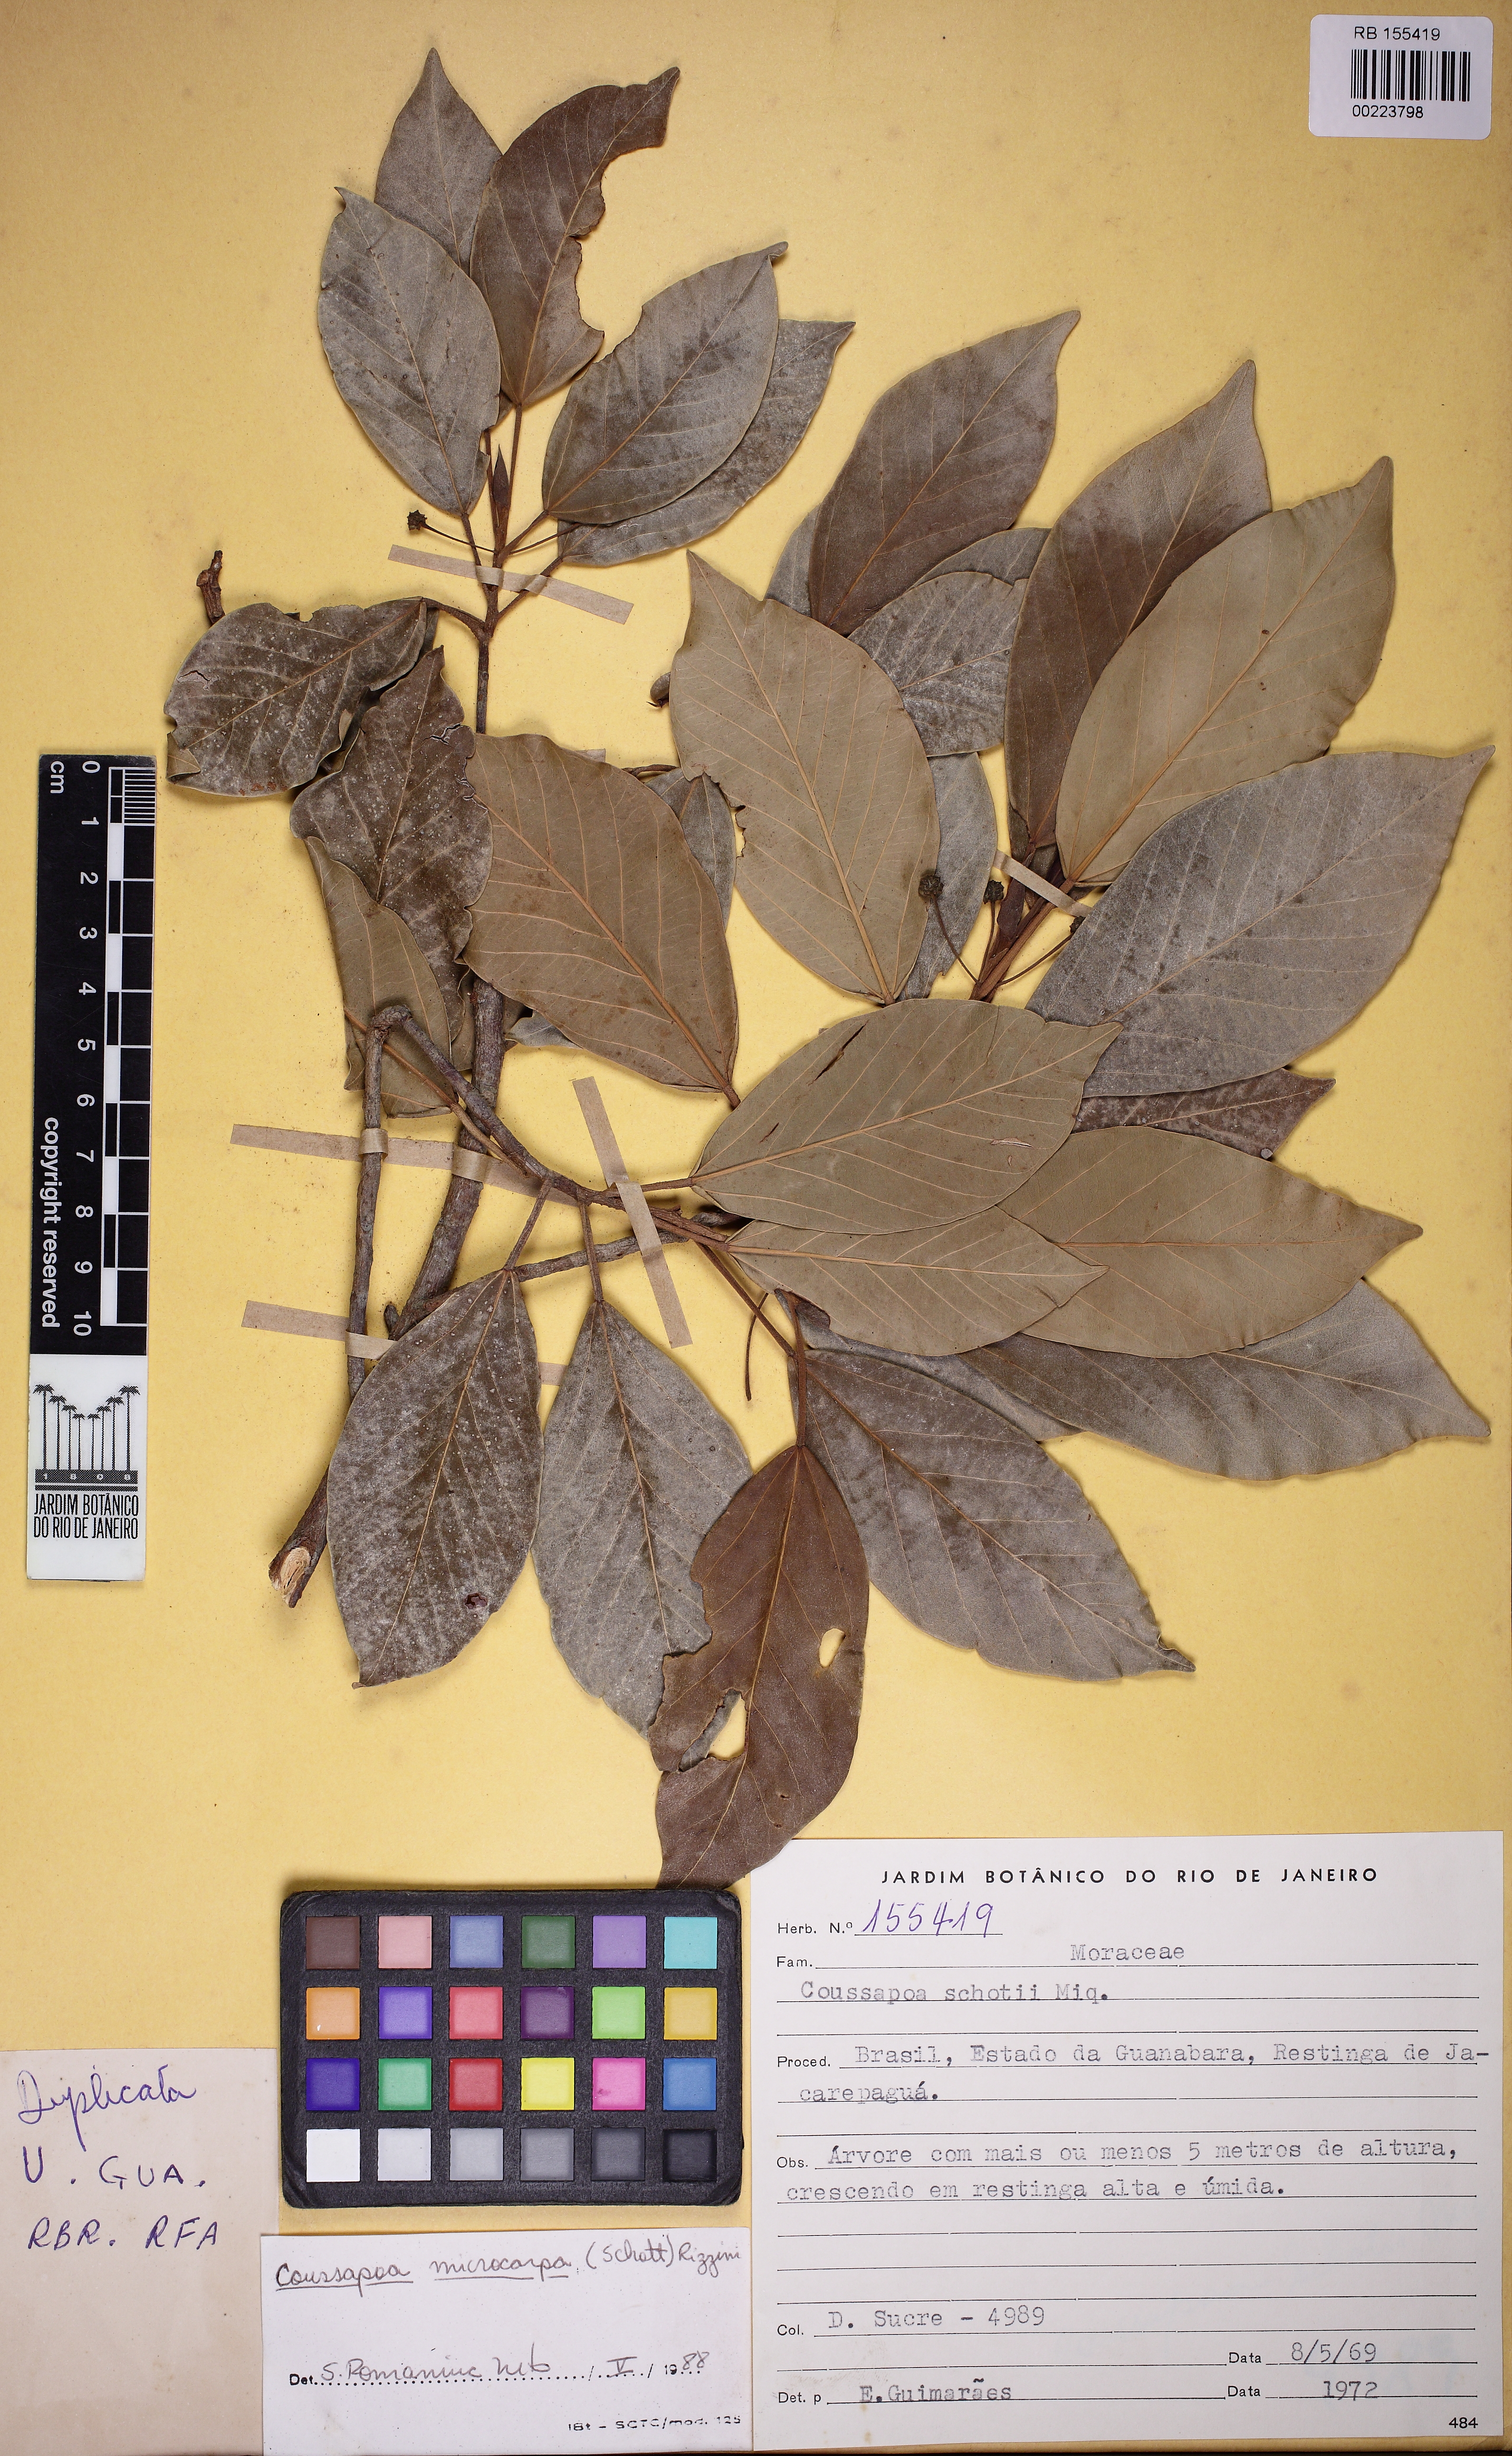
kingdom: Plantae
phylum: Tracheophyta
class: Magnoliopsida
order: Rosales
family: Urticaceae
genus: Coussapoa
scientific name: Coussapoa microcarpa
